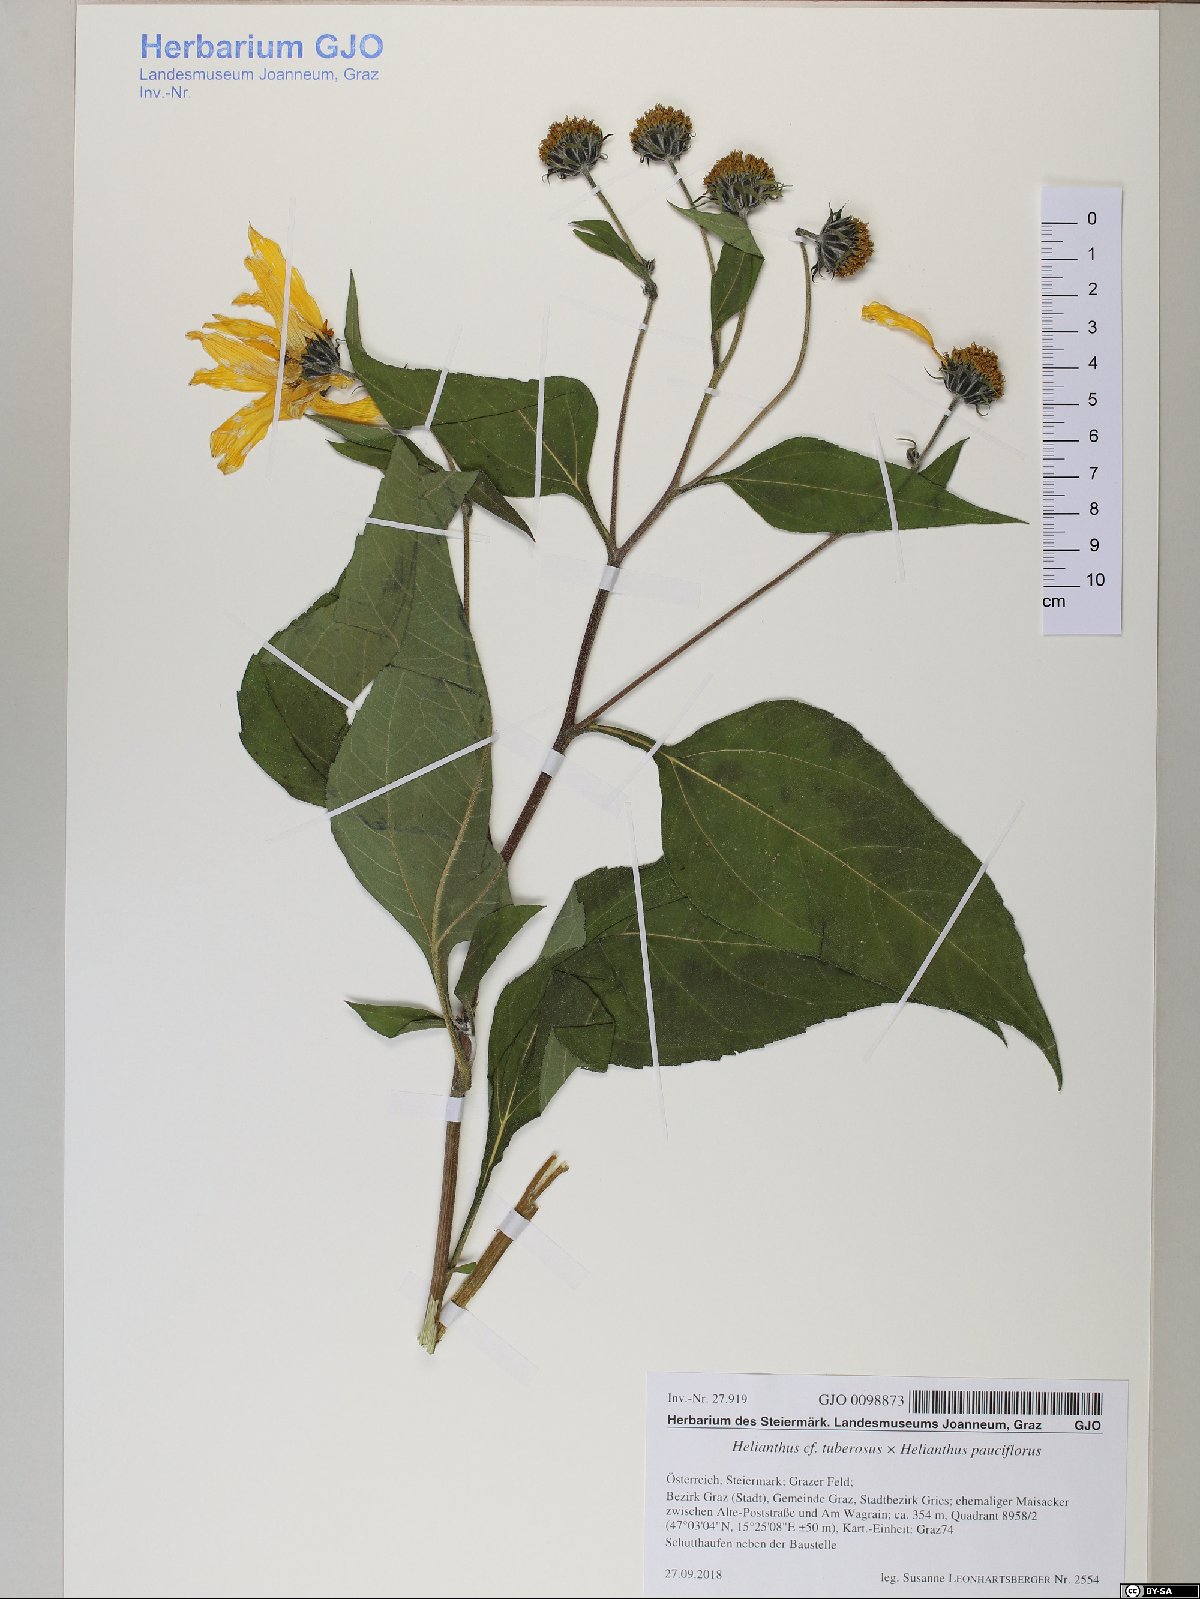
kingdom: Plantae
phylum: Tracheophyta
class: Magnoliopsida
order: Asterales
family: Asteraceae
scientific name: Asteraceae
